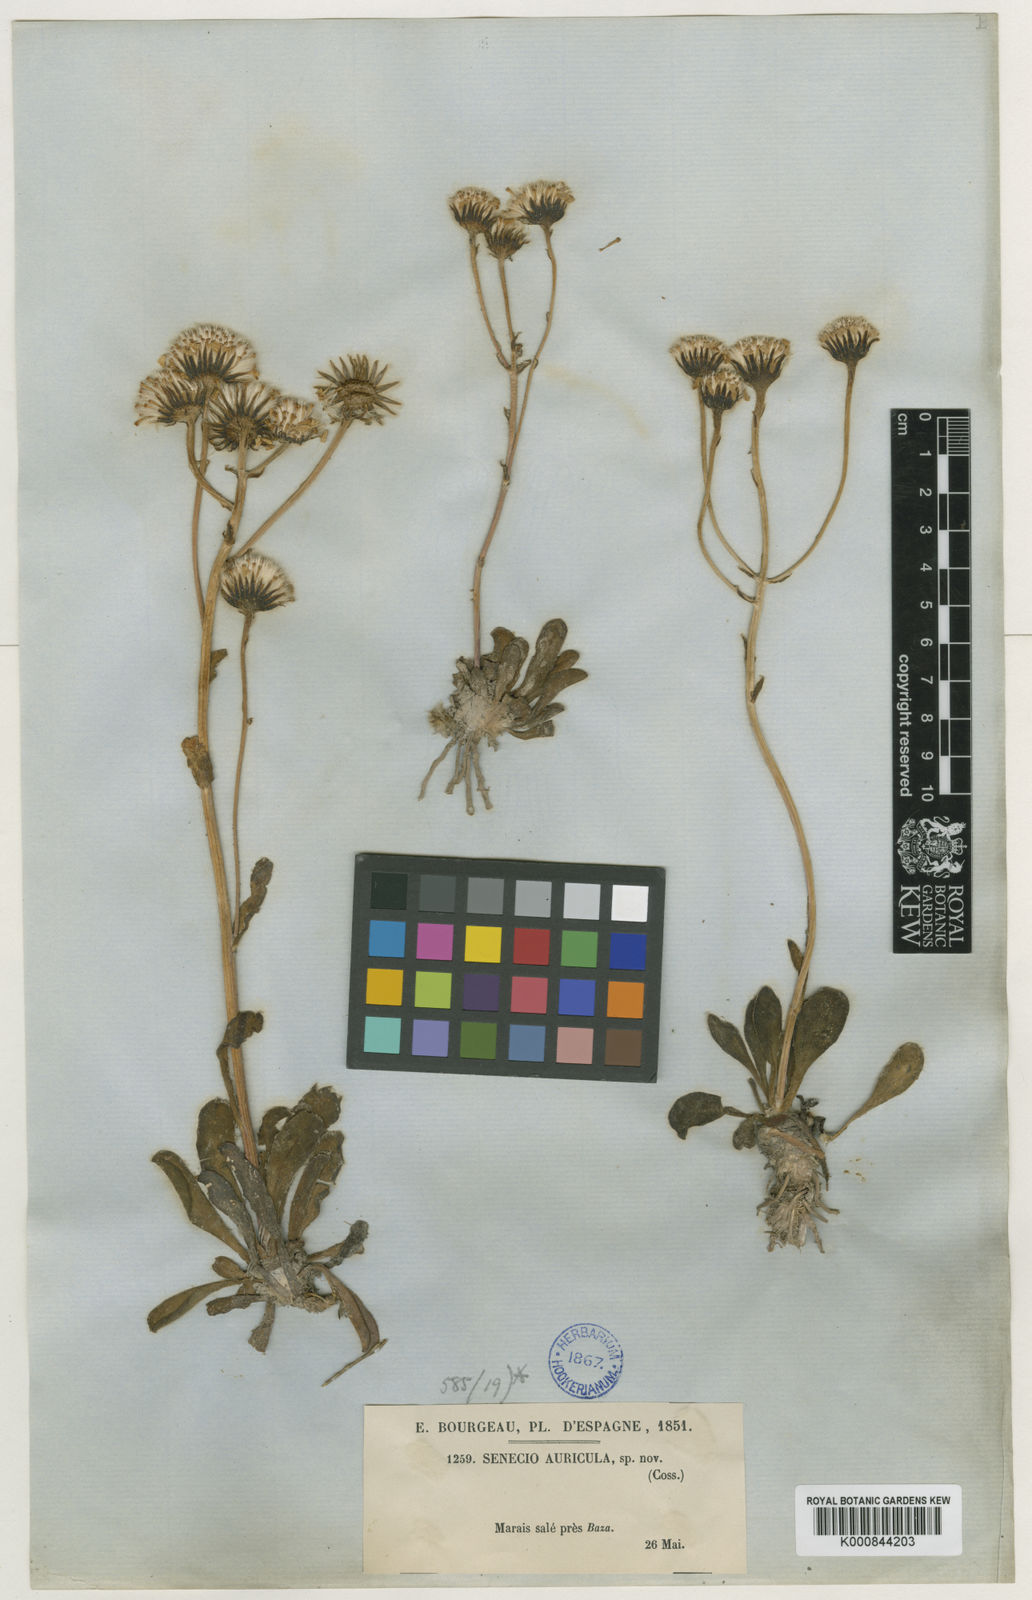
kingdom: Plantae
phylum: Tracheophyta
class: Magnoliopsida
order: Asterales
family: Asteraceae
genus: Senecio
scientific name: Senecio auricula
